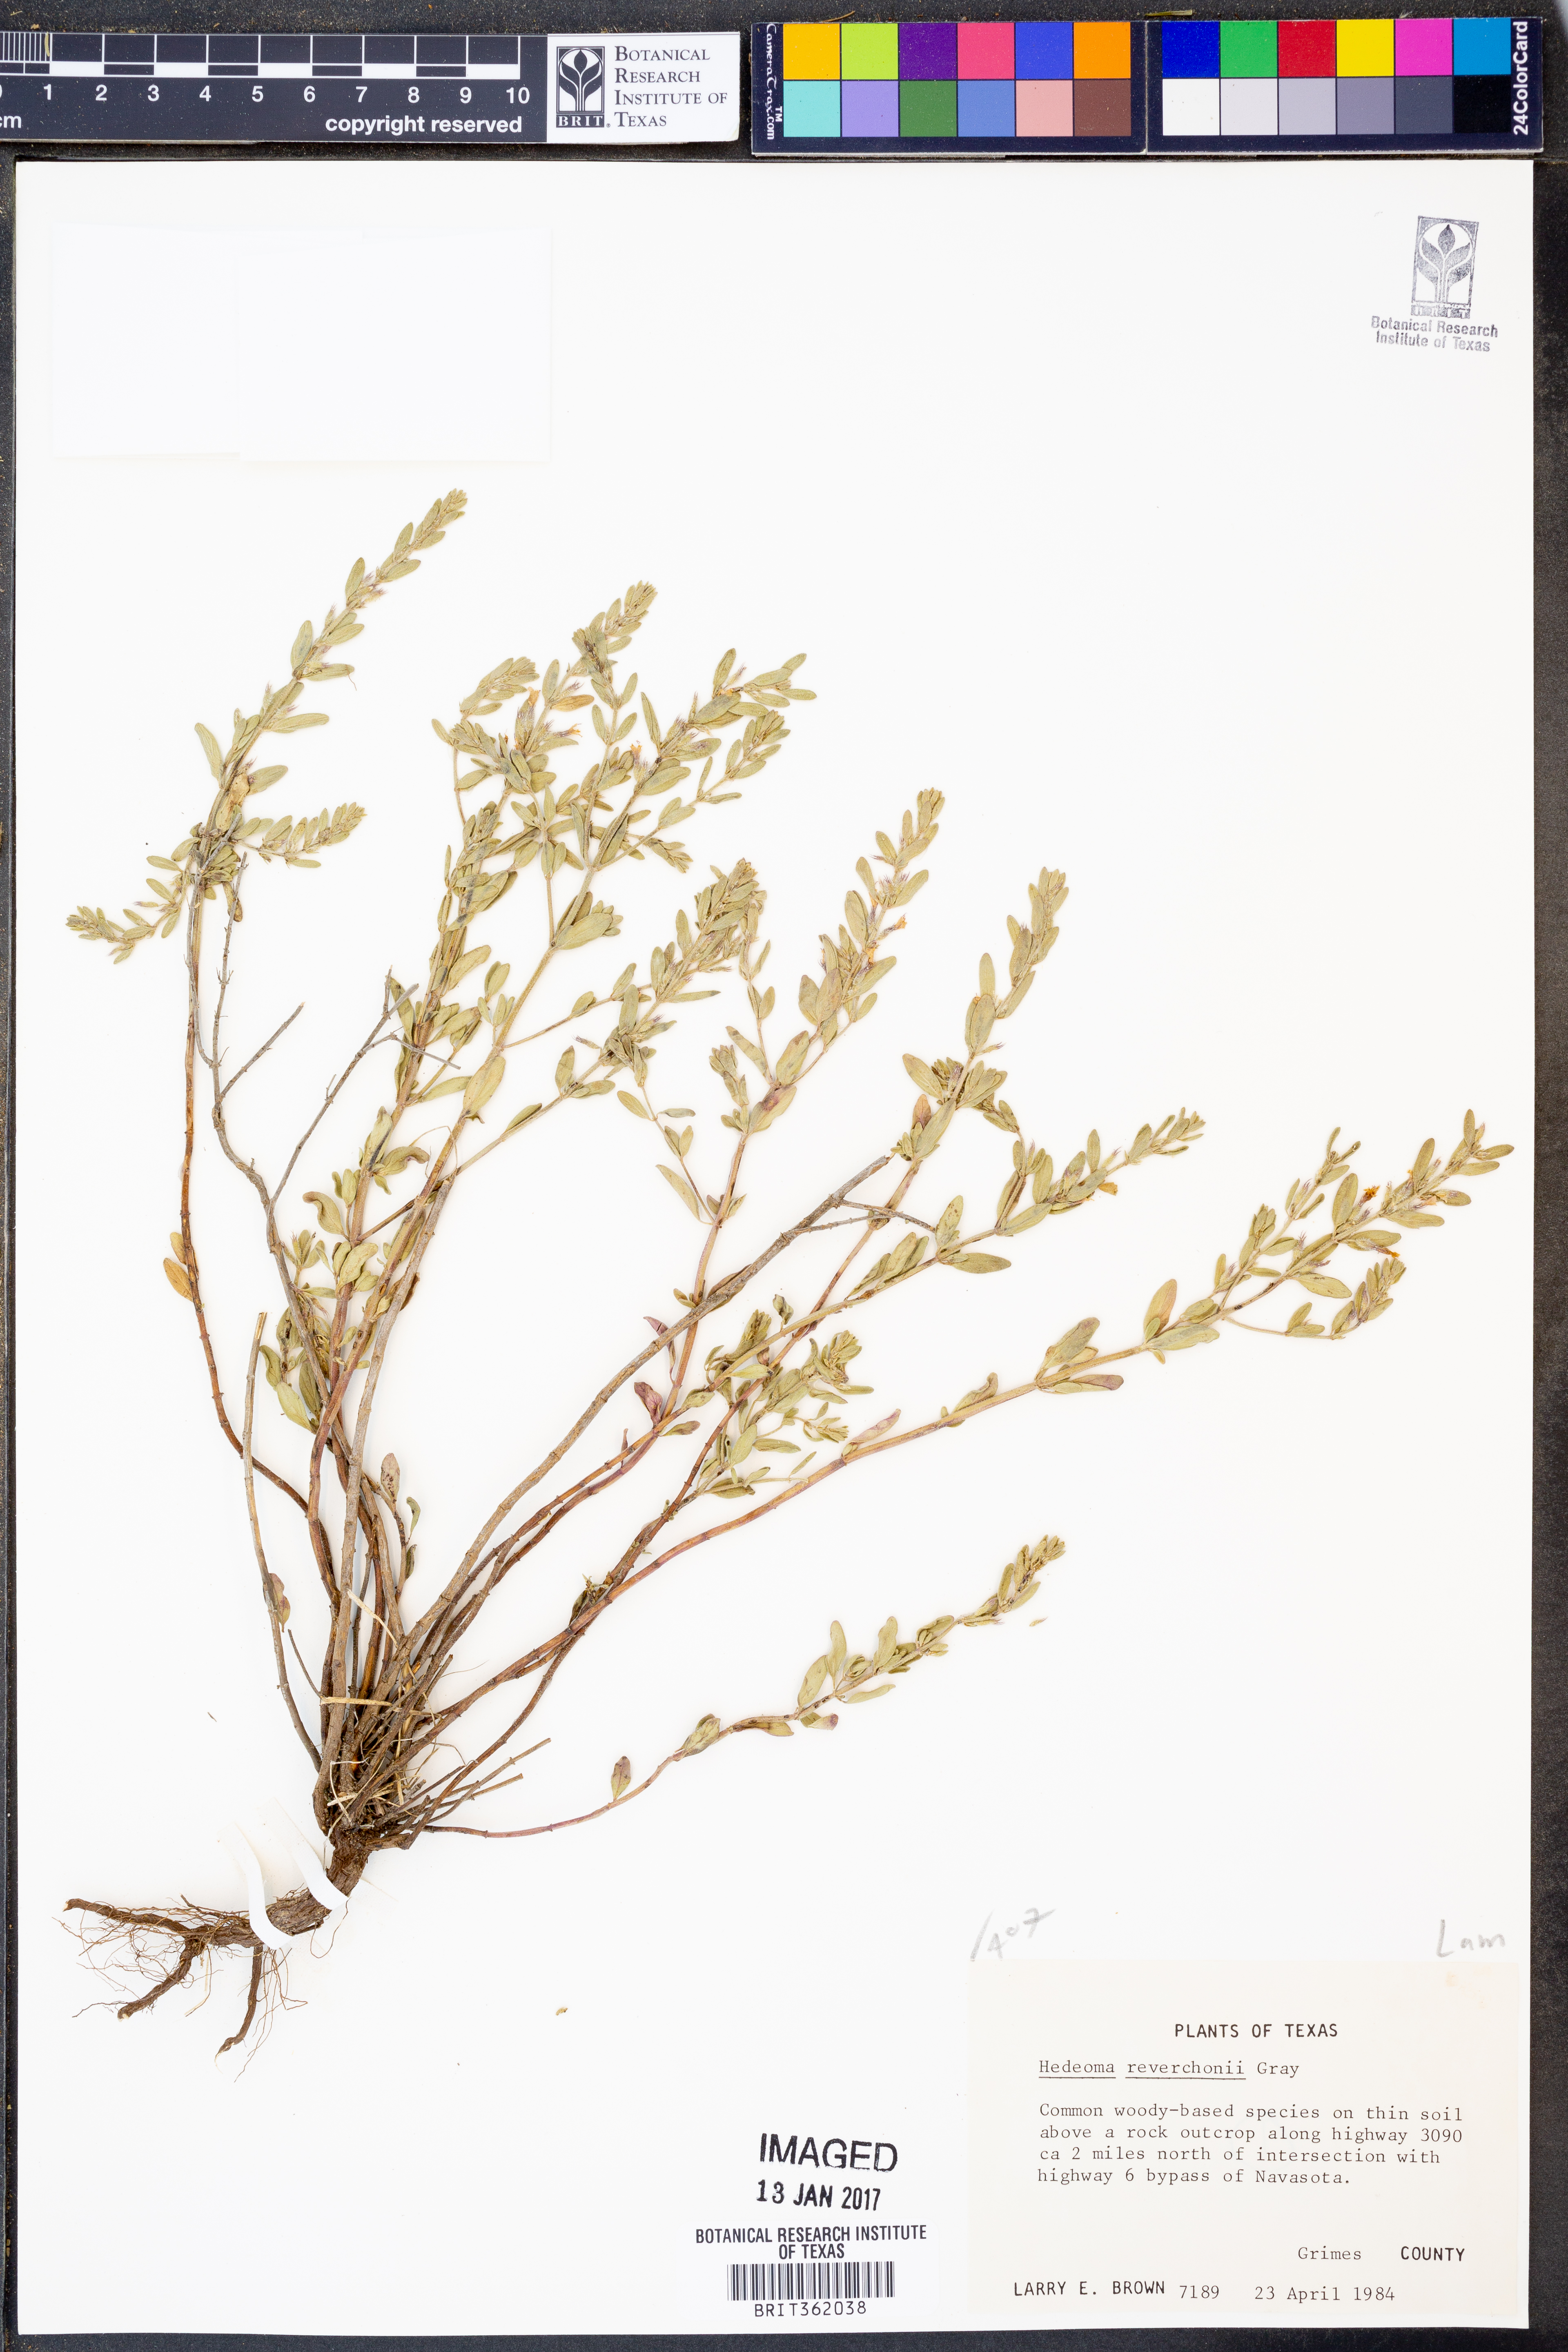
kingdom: Plantae
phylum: Tracheophyta
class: Magnoliopsida
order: Lamiales
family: Lamiaceae
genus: Hedeoma
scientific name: Hedeoma reverchonii
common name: Reverchon's false penny-royal
